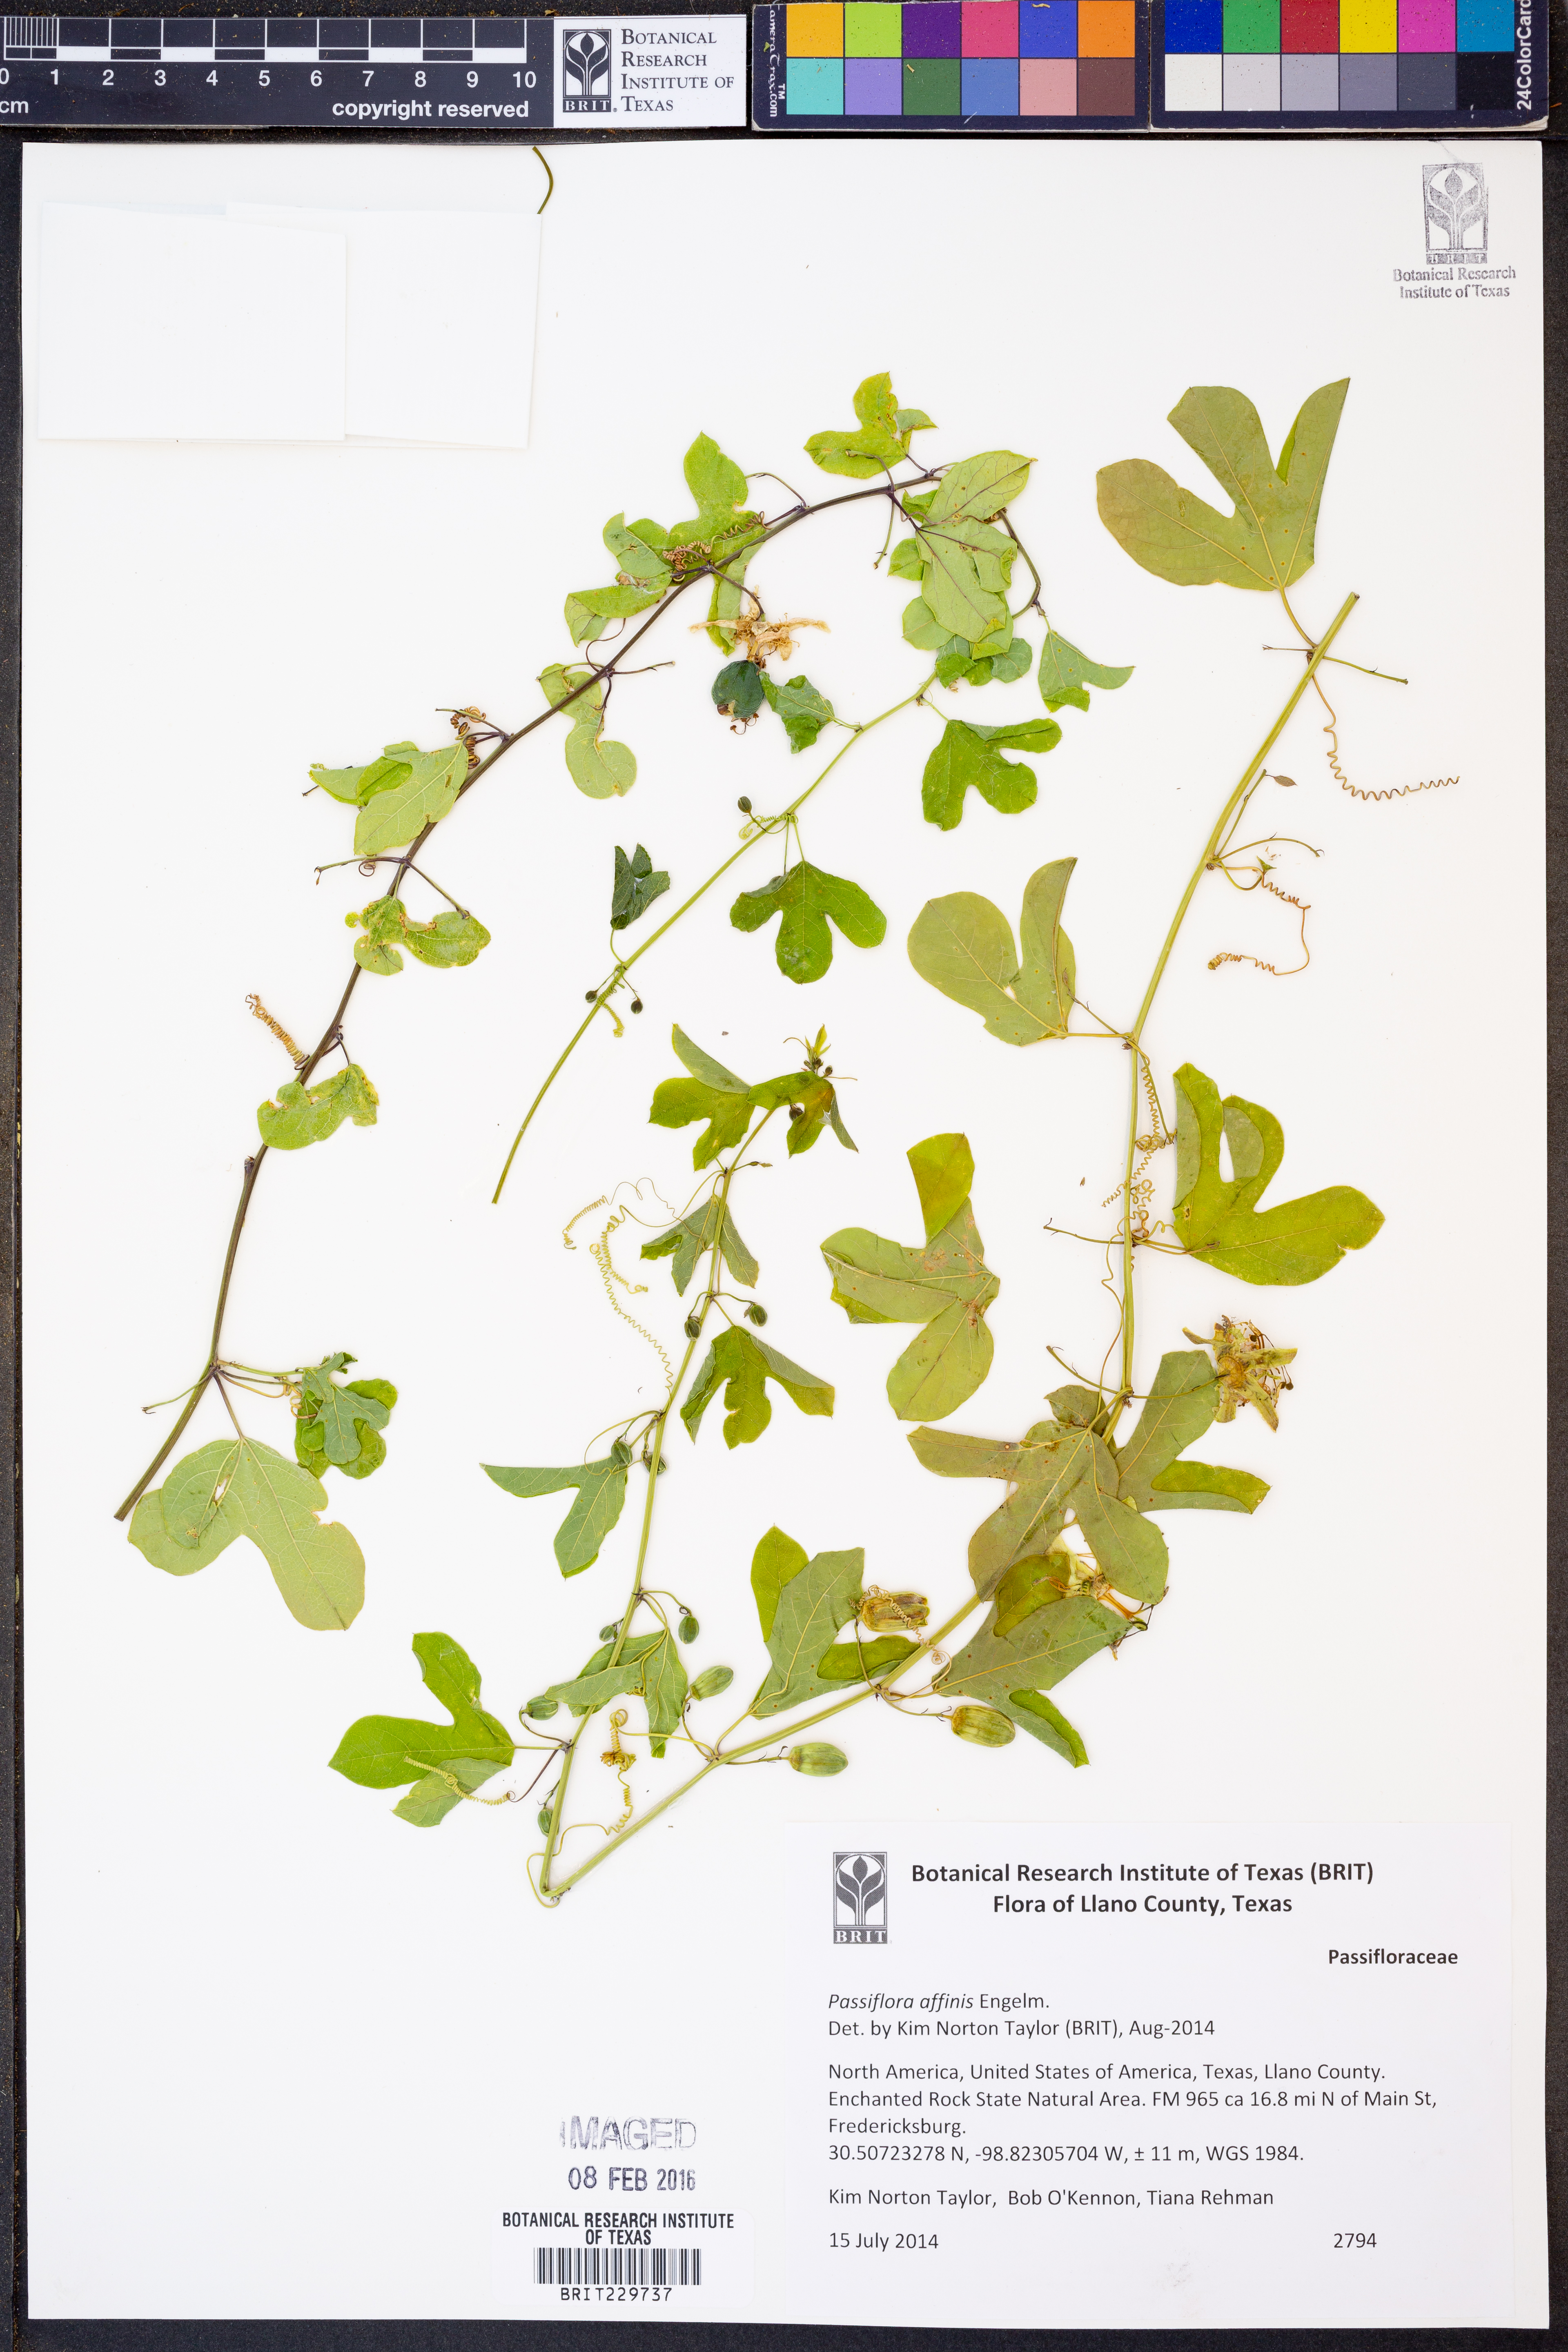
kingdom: Plantae
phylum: Tracheophyta
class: Magnoliopsida
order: Malpighiales
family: Passifloraceae
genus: Passiflora
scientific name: Passiflora affinis
